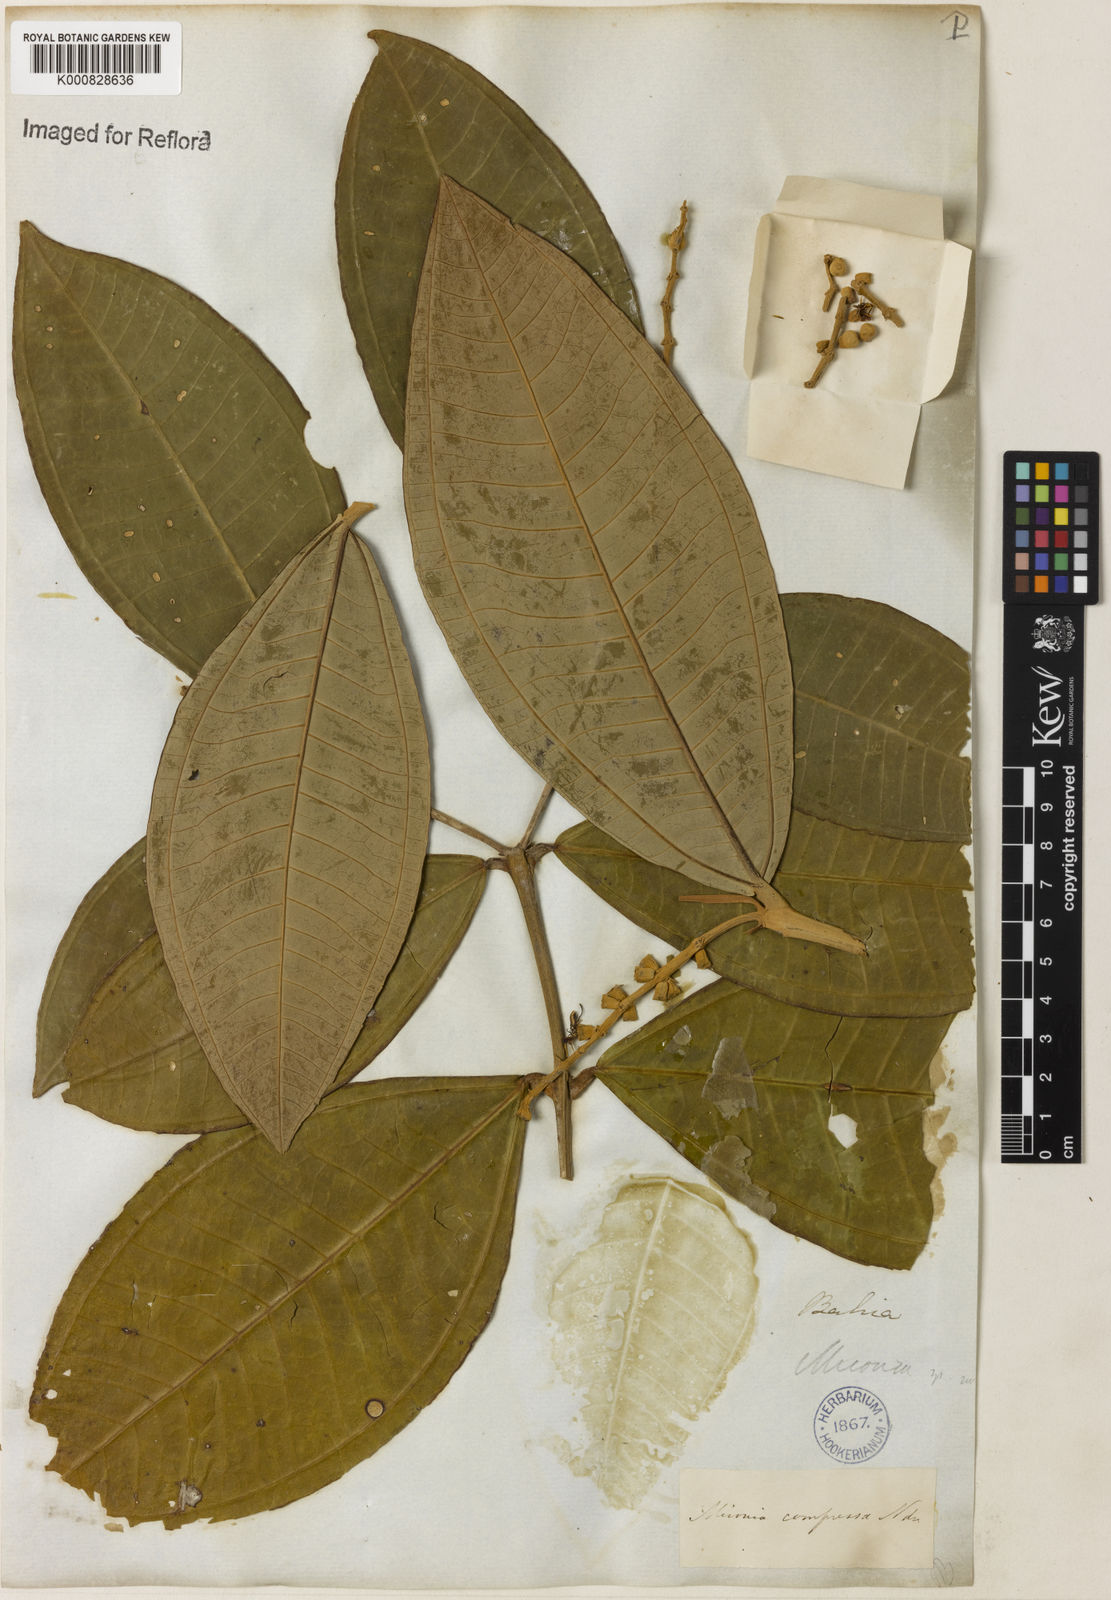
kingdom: Plantae
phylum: Tracheophyta
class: Magnoliopsida
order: Myrtales
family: Melastomataceae
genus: Miconia
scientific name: Miconia compressa
